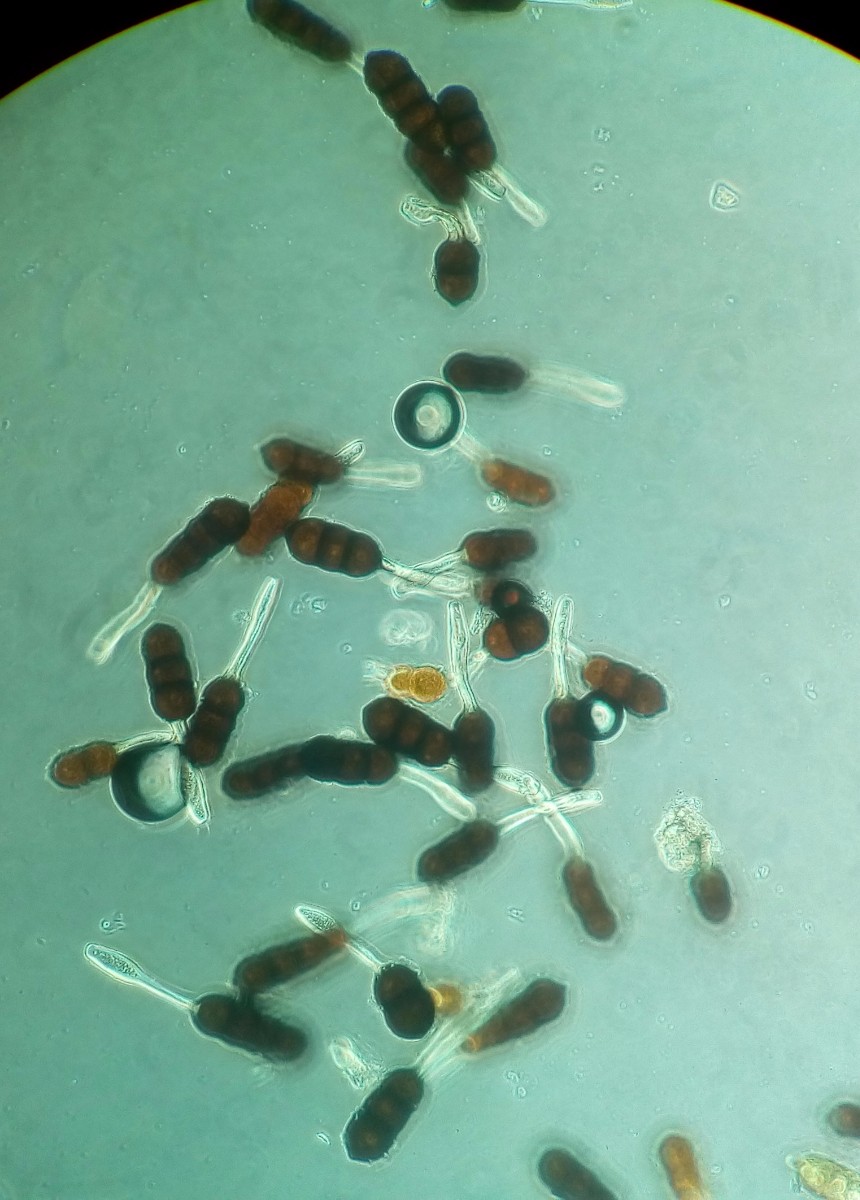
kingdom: Fungi
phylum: Basidiomycota
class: Pucciniomycetes
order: Pucciniales
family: Phragmidiaceae
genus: Phragmidium
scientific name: Phragmidium violaceum
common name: violet flercellerust
